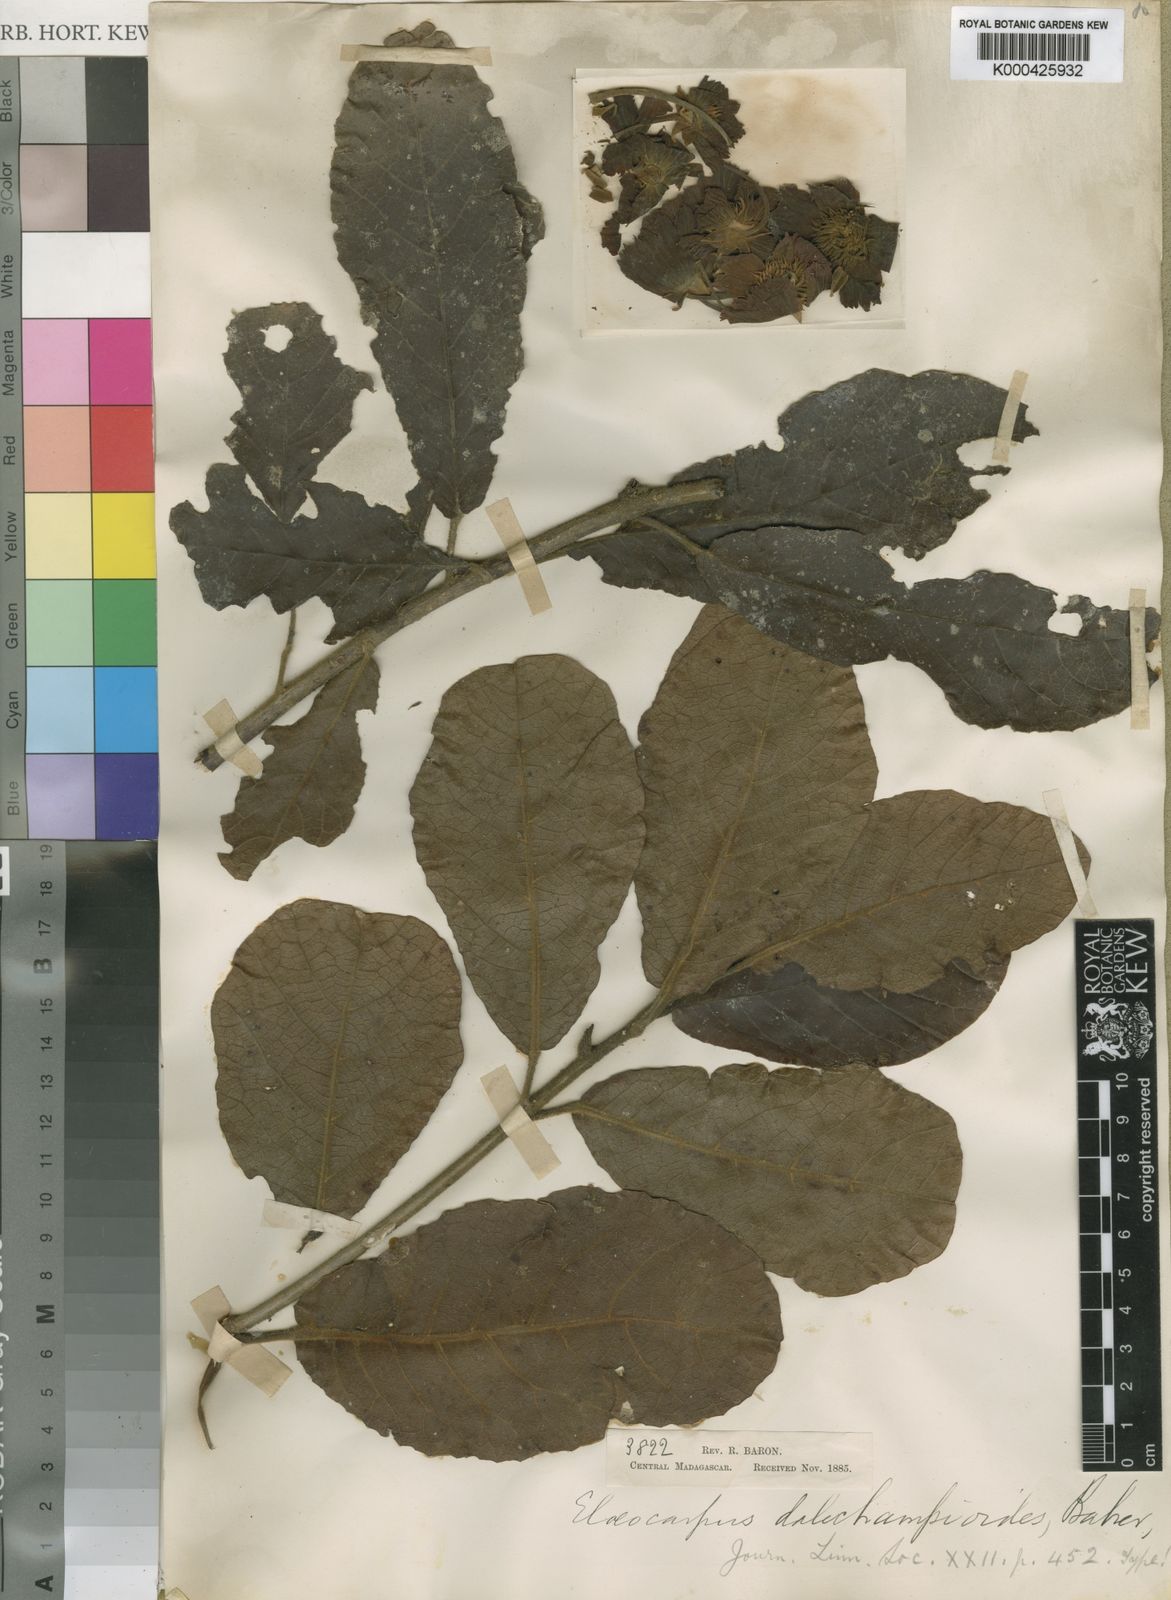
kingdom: Plantae
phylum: Tracheophyta
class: Magnoliopsida
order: Oxalidales
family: Elaeocarpaceae
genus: Sloanea
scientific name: Sloanea rhodantha
